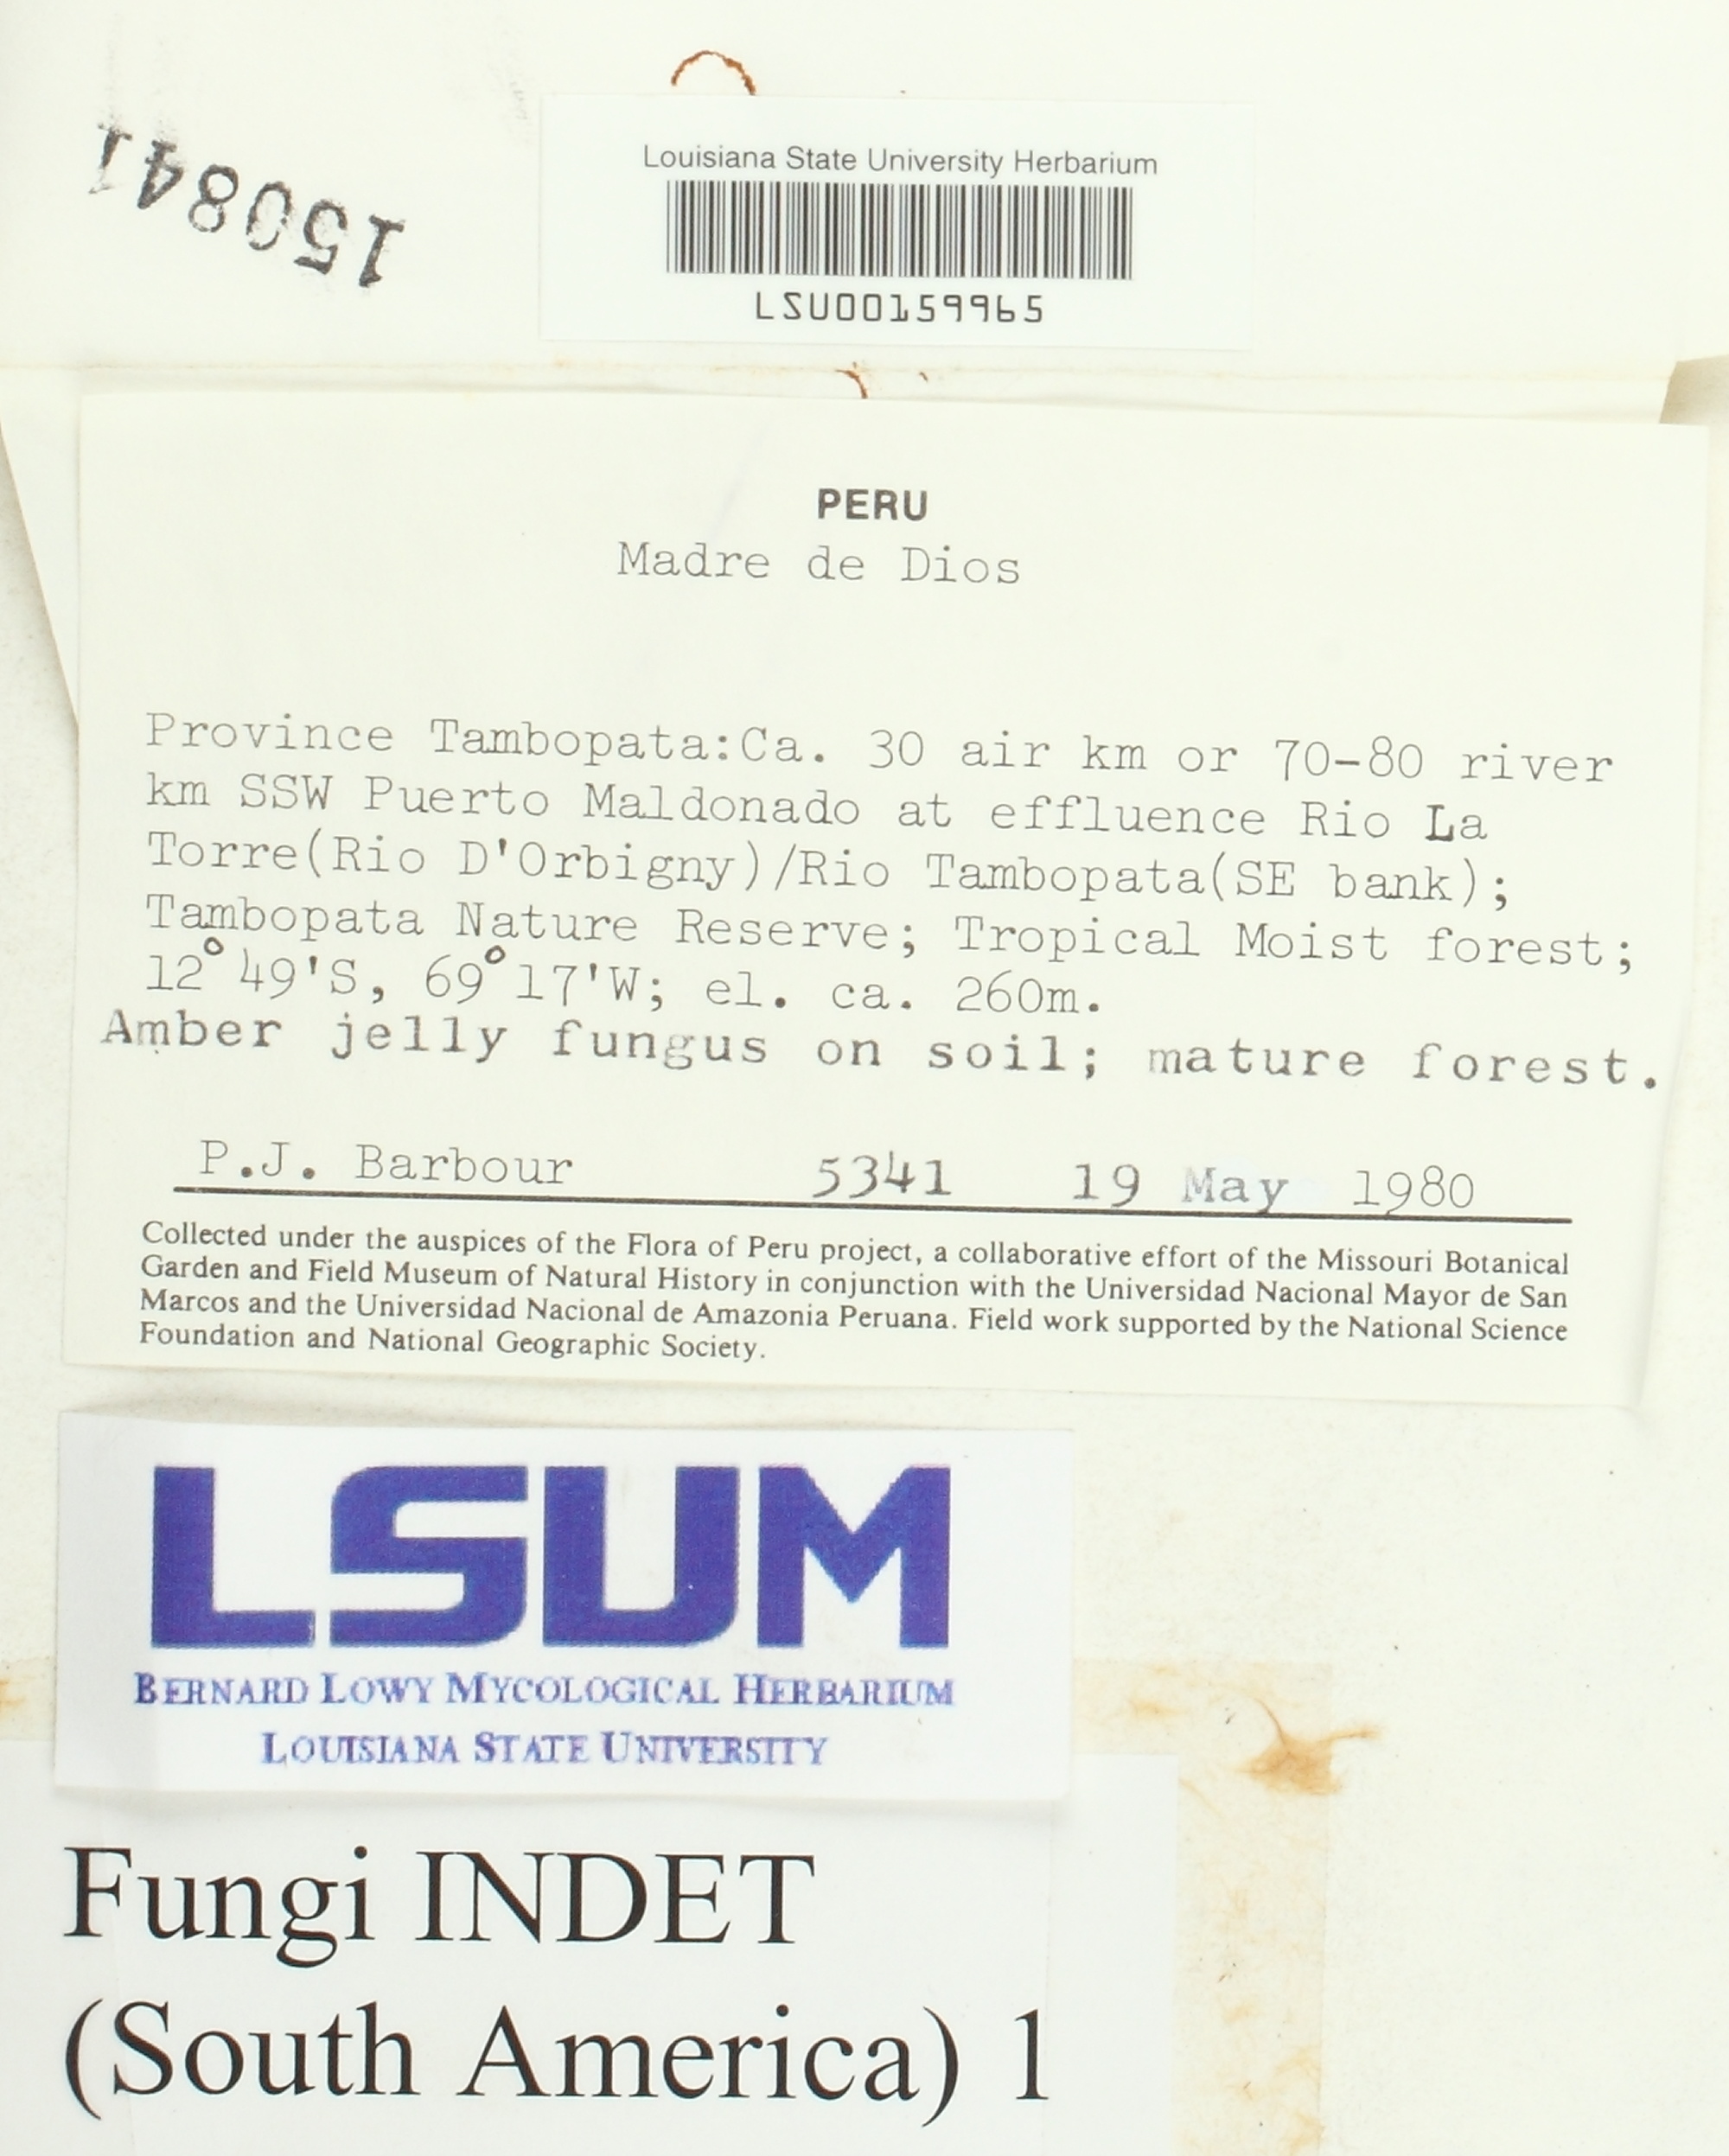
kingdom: Fungi
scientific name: Fungi
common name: Fungi
